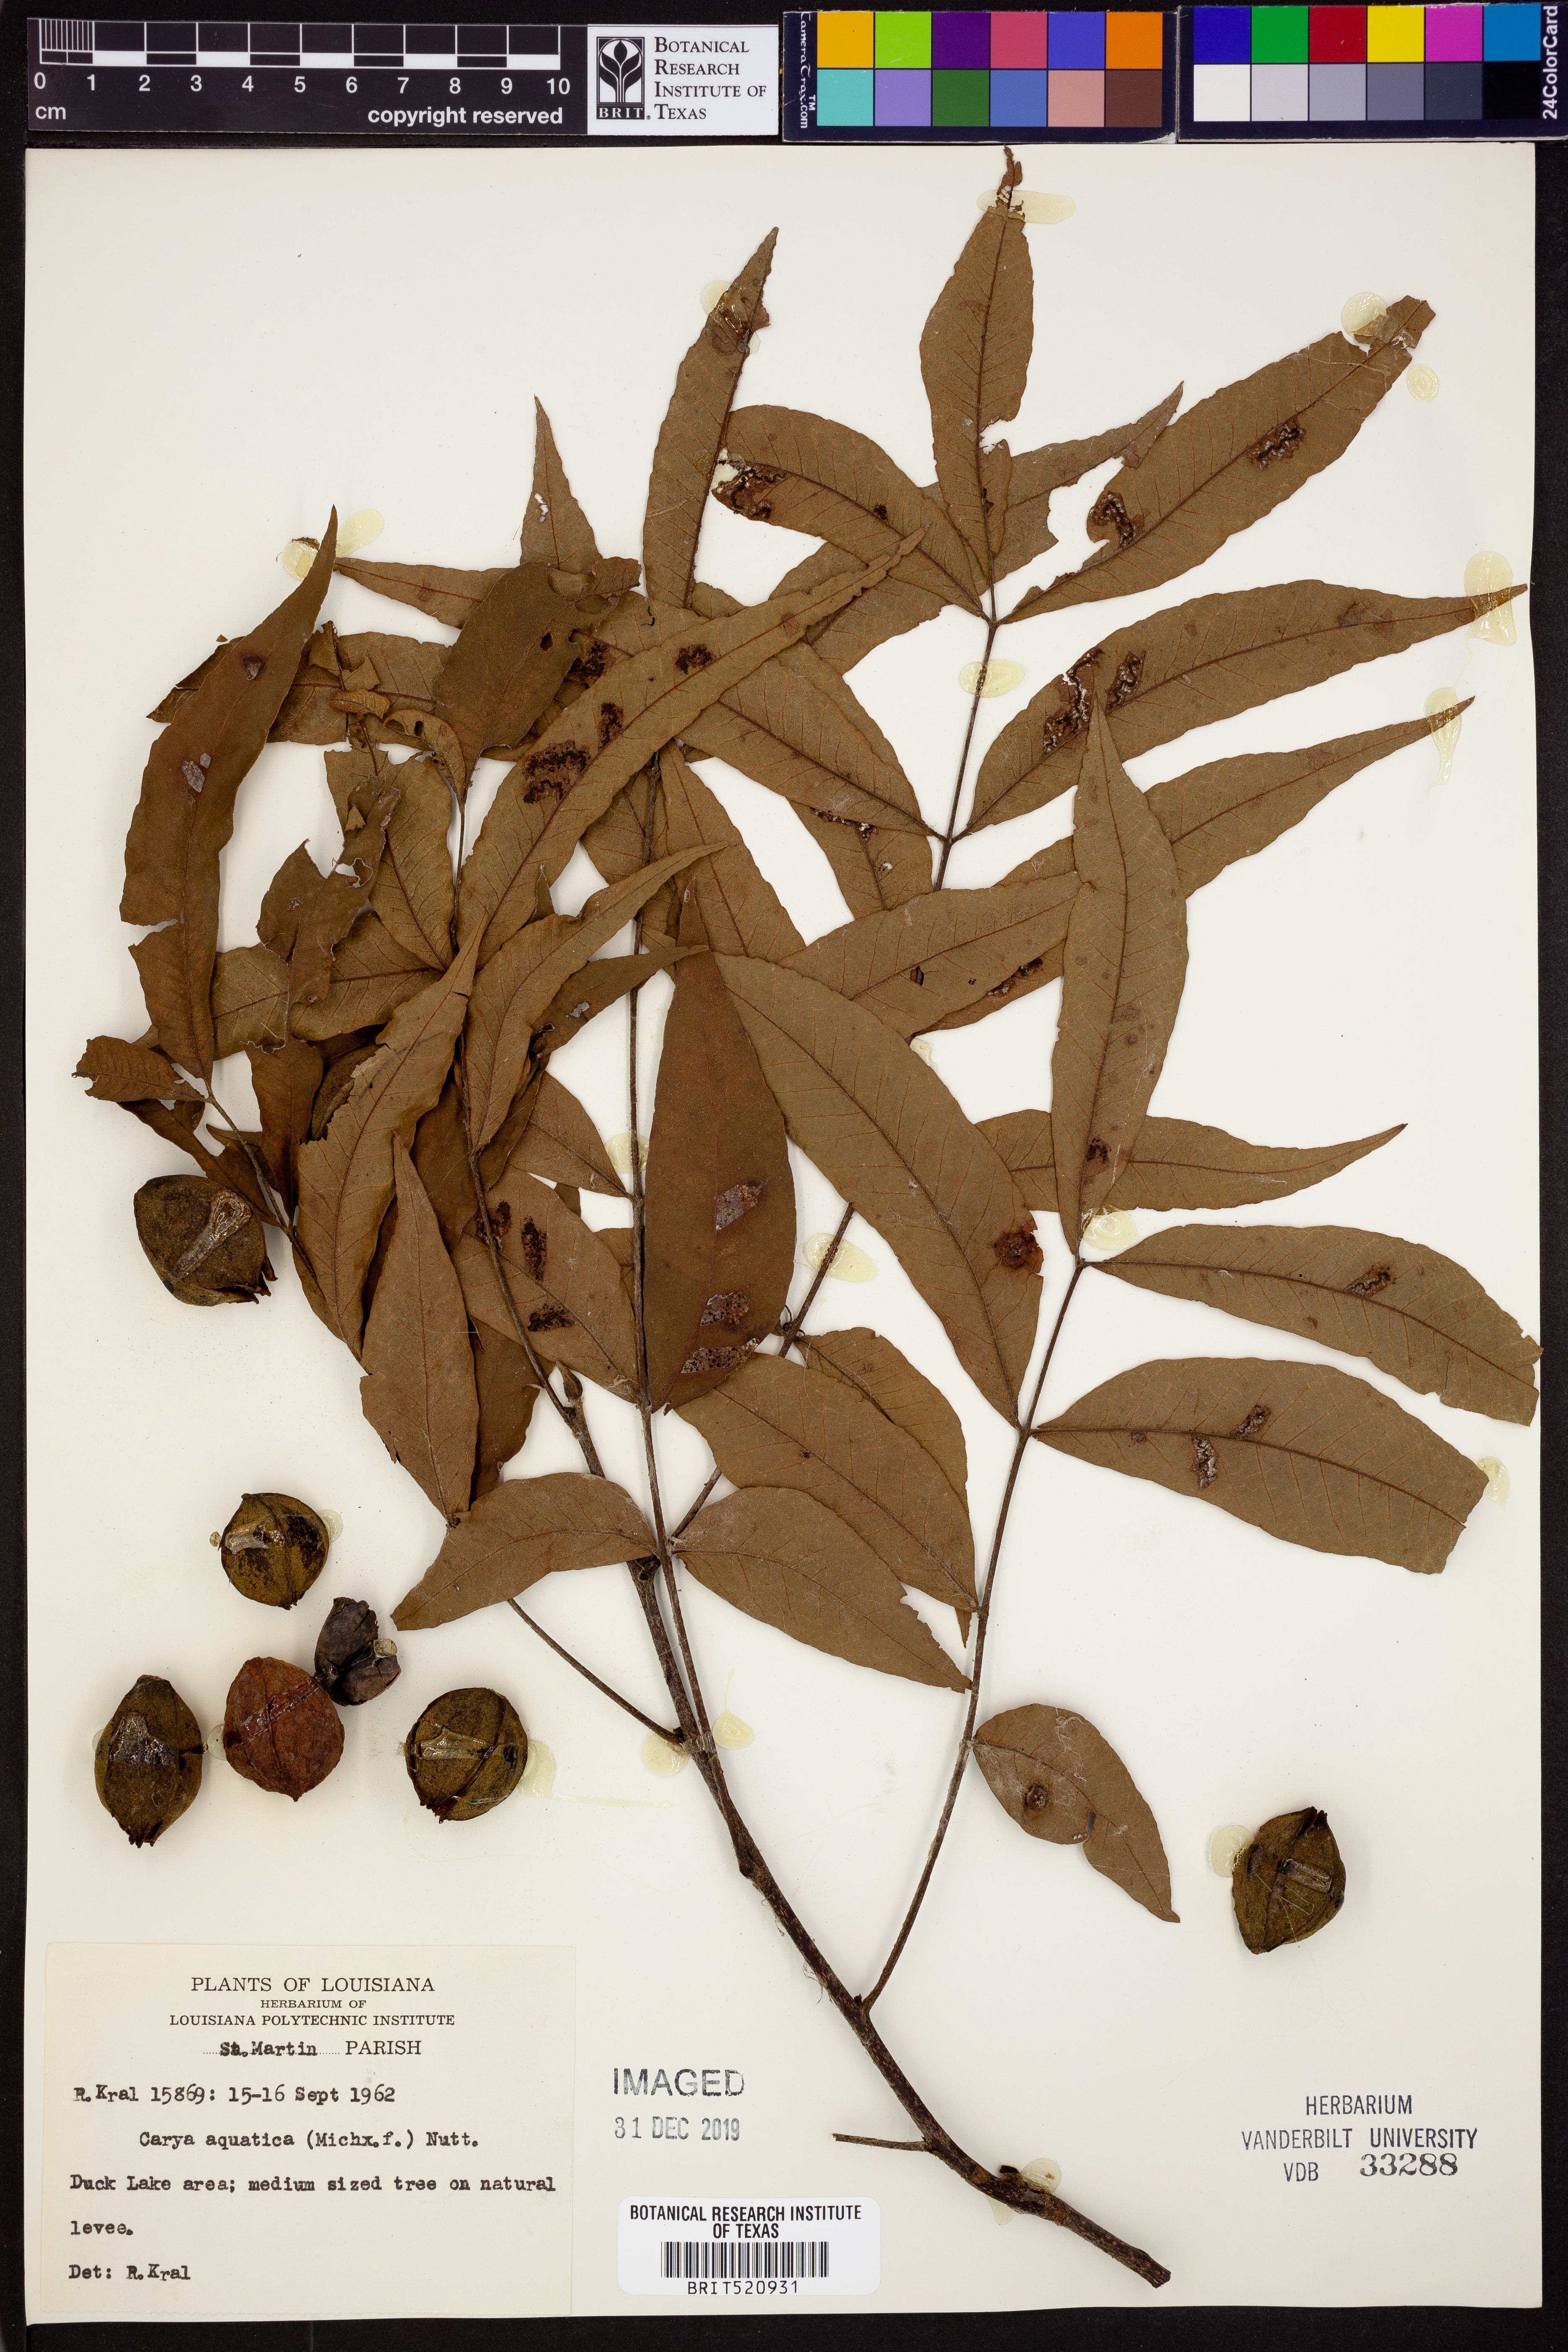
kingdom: Plantae
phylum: Tracheophyta
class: Magnoliopsida
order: Fagales
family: Juglandaceae
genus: Carya
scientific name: Carya aquatica
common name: Water hickory
